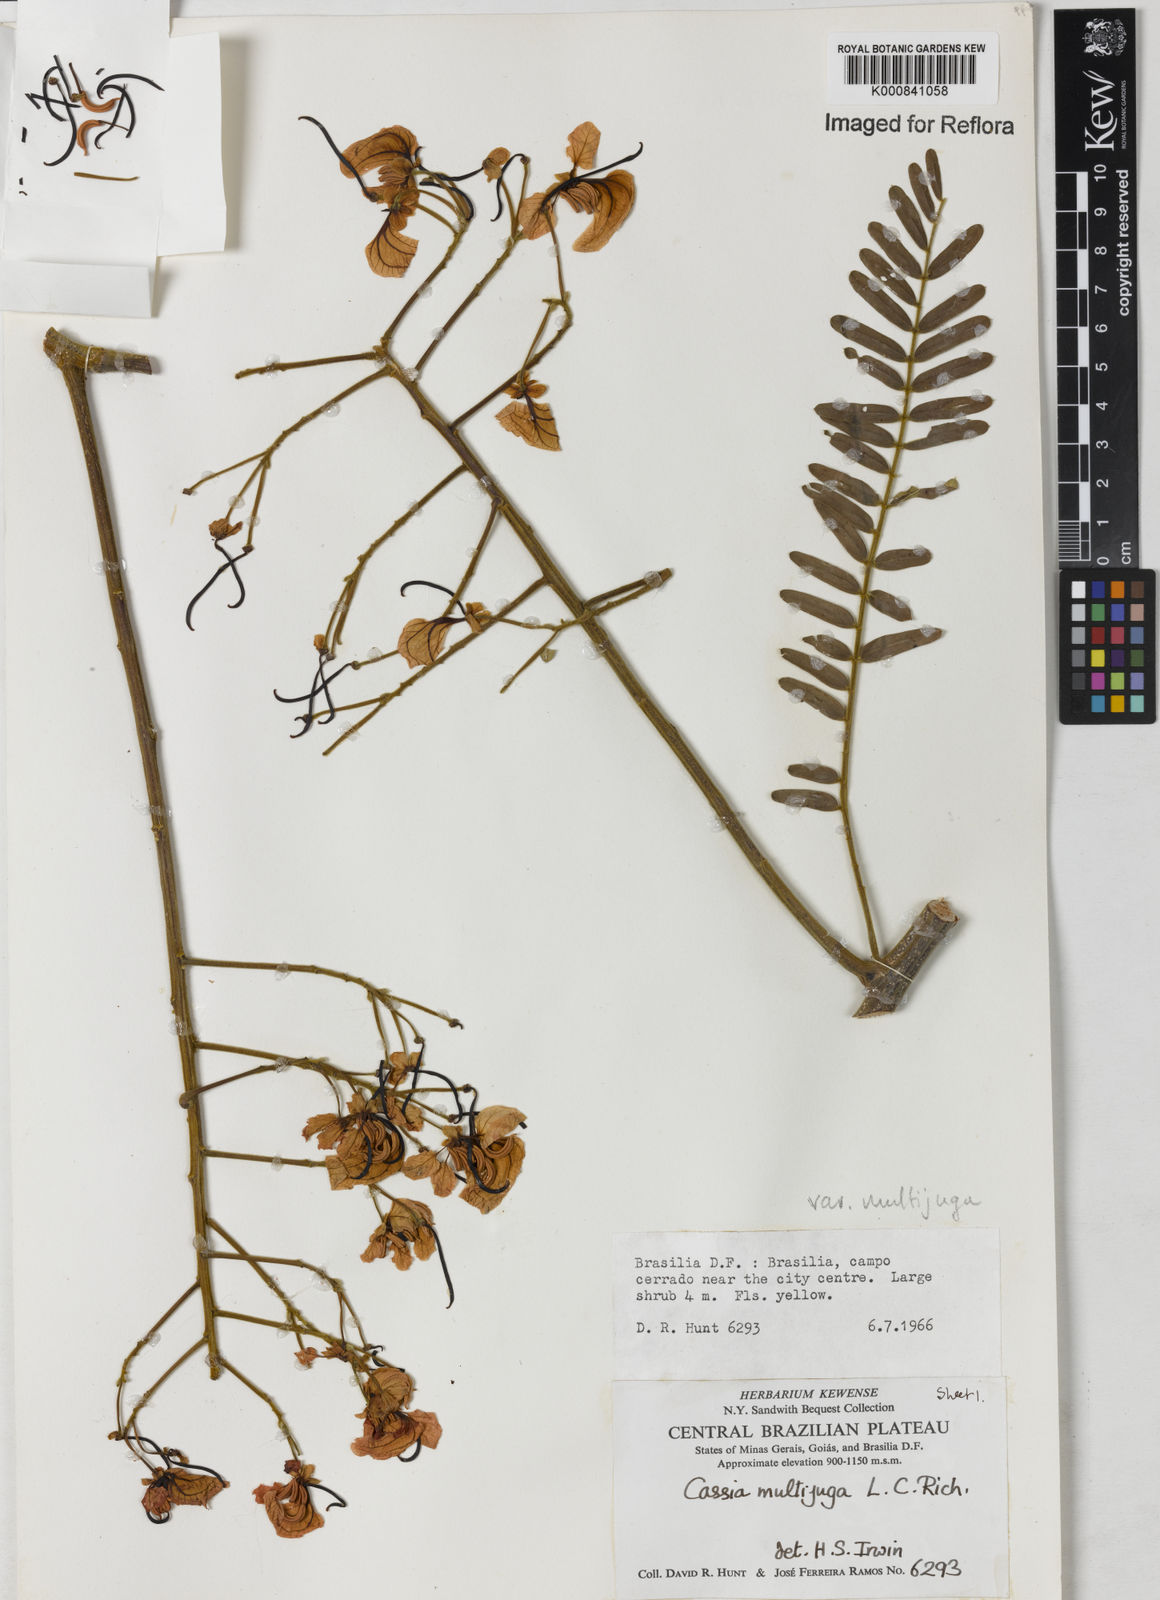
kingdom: Plantae
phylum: Tracheophyta
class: Magnoliopsida
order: Fabales
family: Fabaceae
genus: Senna
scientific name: Senna multijuga
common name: False sicklepod
